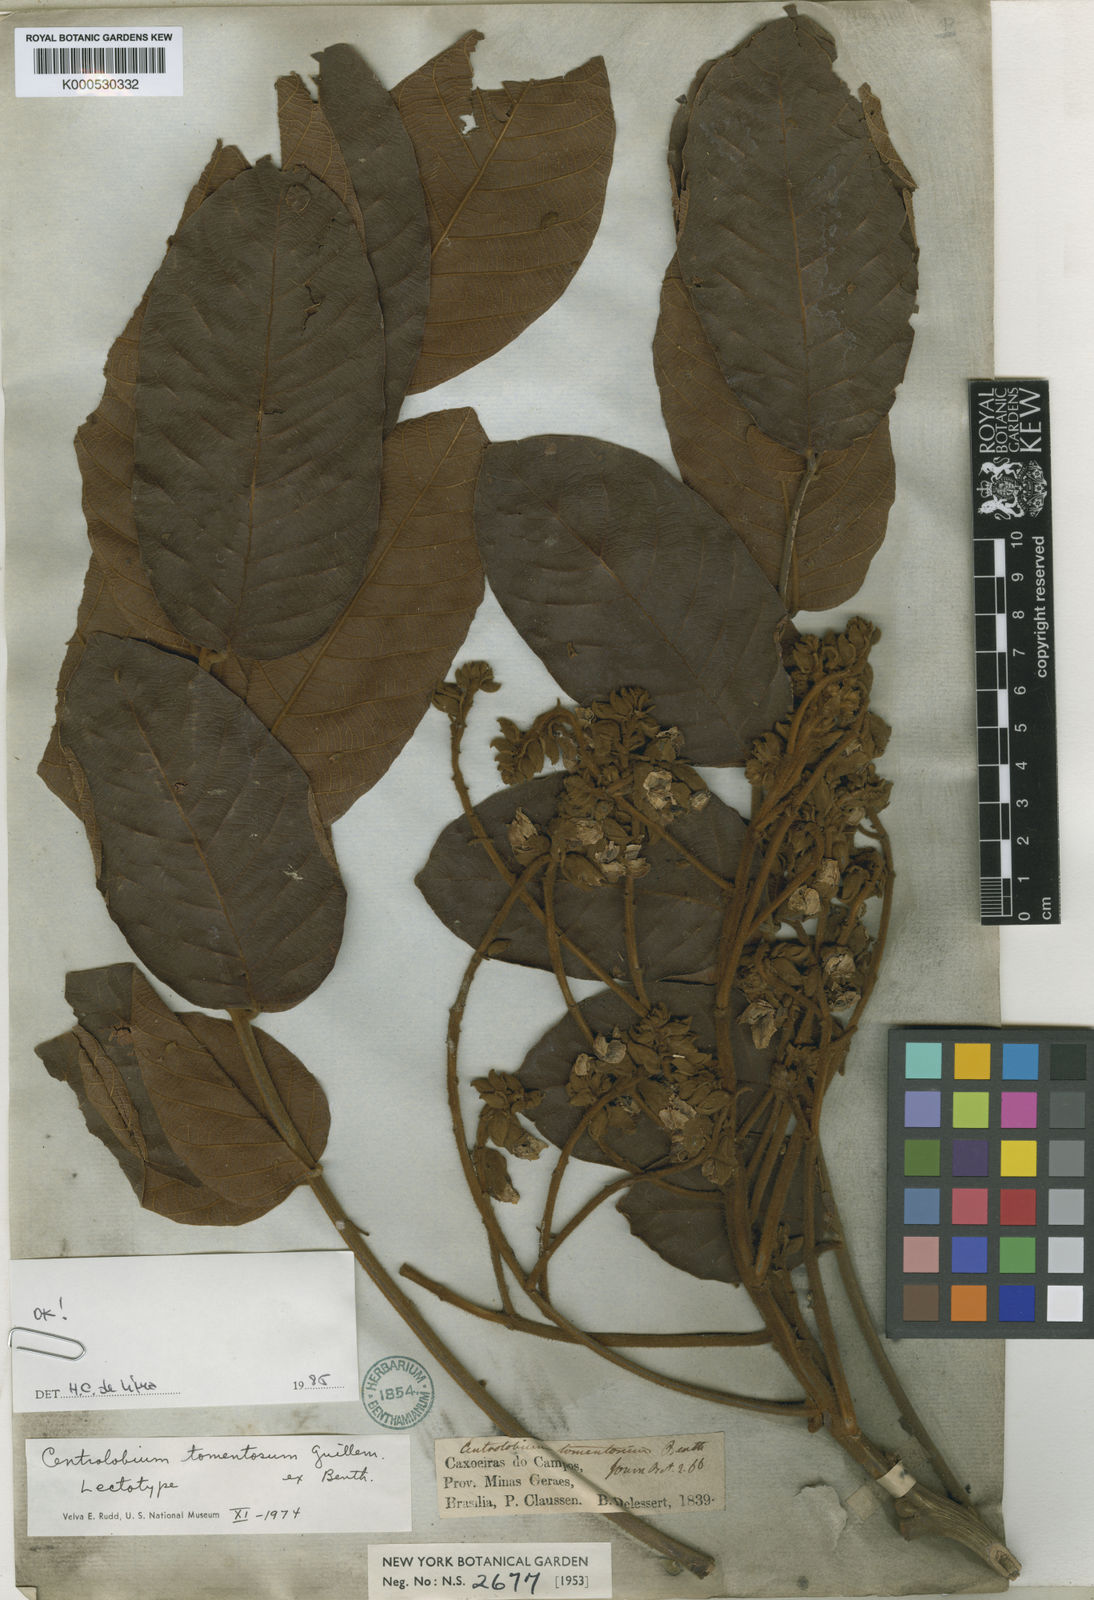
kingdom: Plantae
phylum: Tracheophyta
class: Magnoliopsida
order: Fabales
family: Fabaceae
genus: Centrolobium
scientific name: Centrolobium tomentosum
